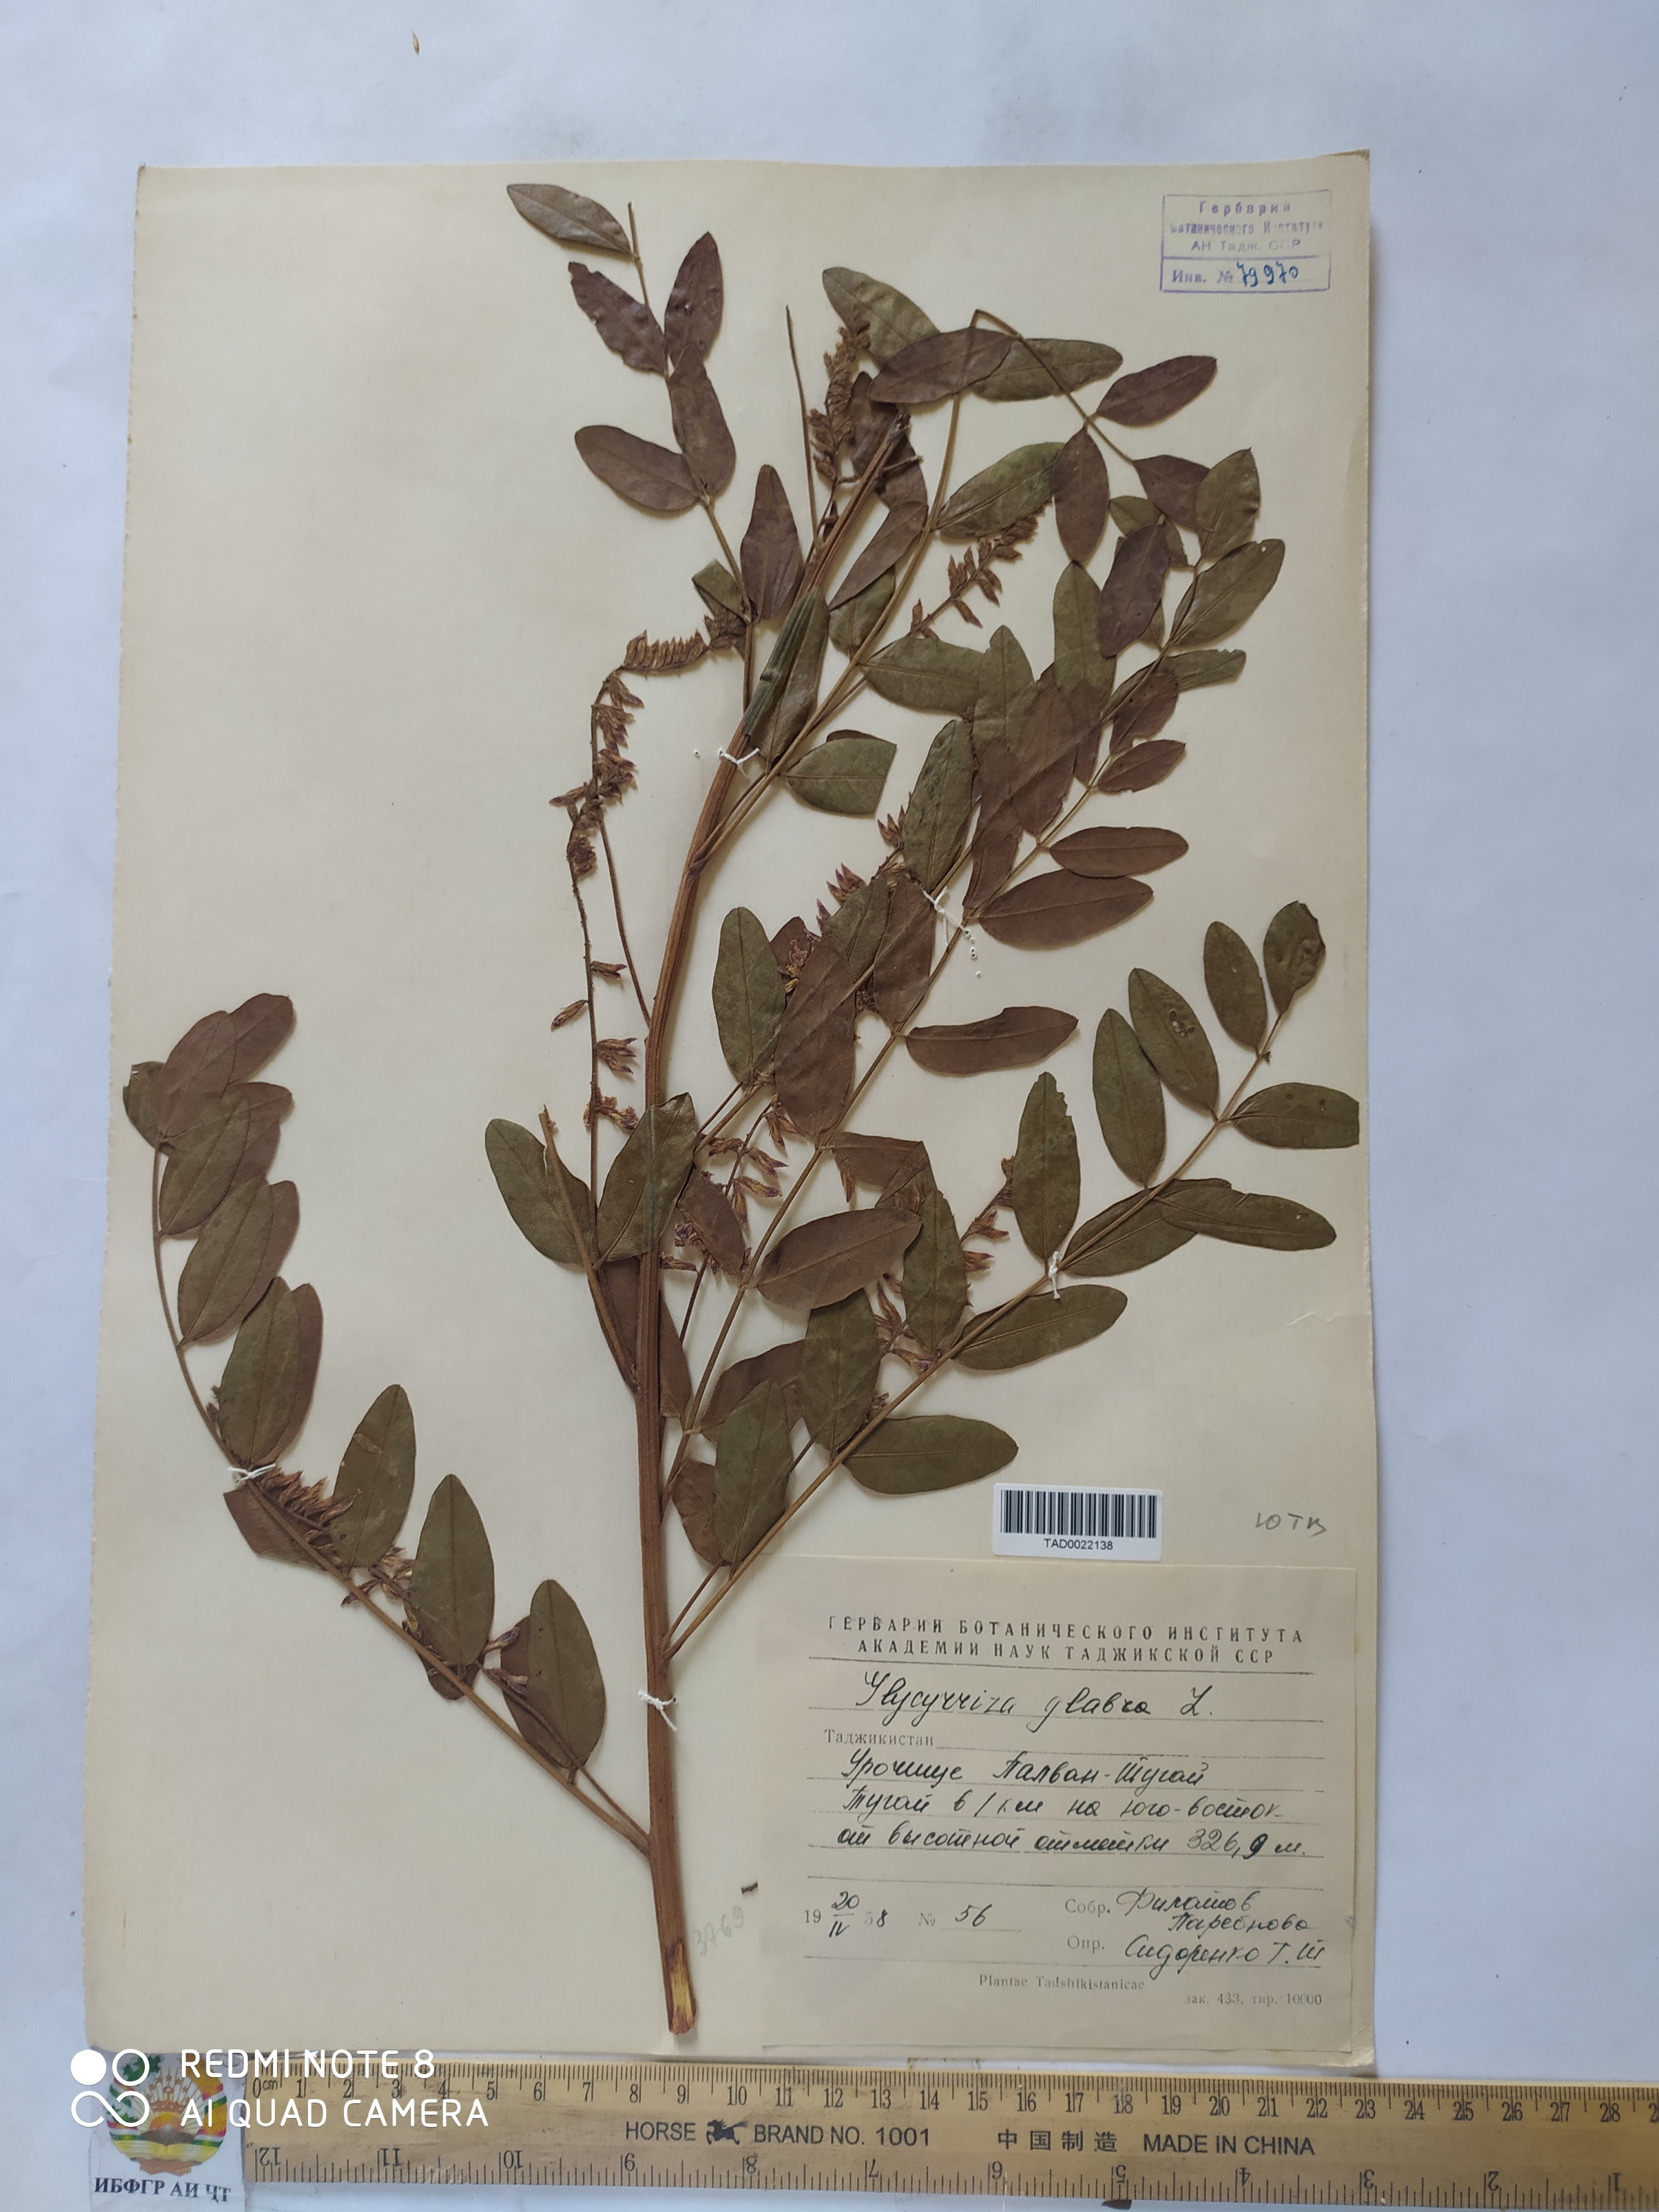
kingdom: Plantae
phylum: Tracheophyta
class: Magnoliopsida
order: Fabales
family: Fabaceae
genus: Glycyrrhiza
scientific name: Glycyrrhiza glabra
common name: Liquorice
